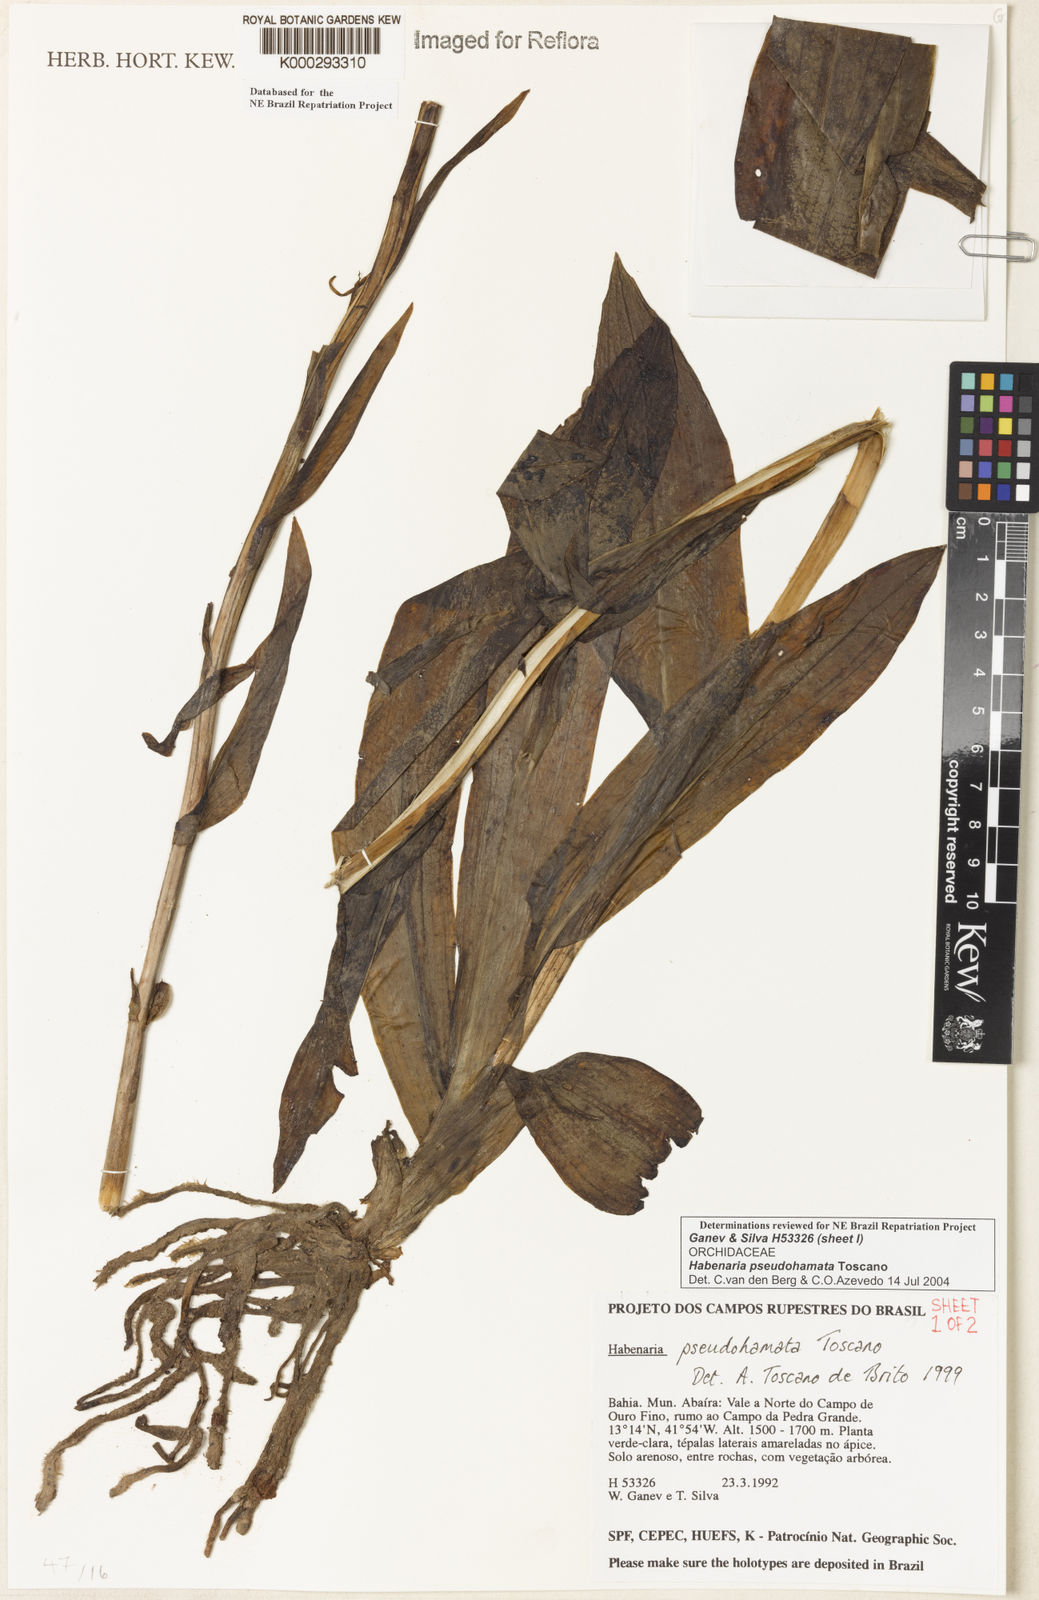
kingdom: Plantae
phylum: Tracheophyta
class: Liliopsida
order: Asparagales
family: Orchidaceae
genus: Habenaria
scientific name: Habenaria pseudohamata
